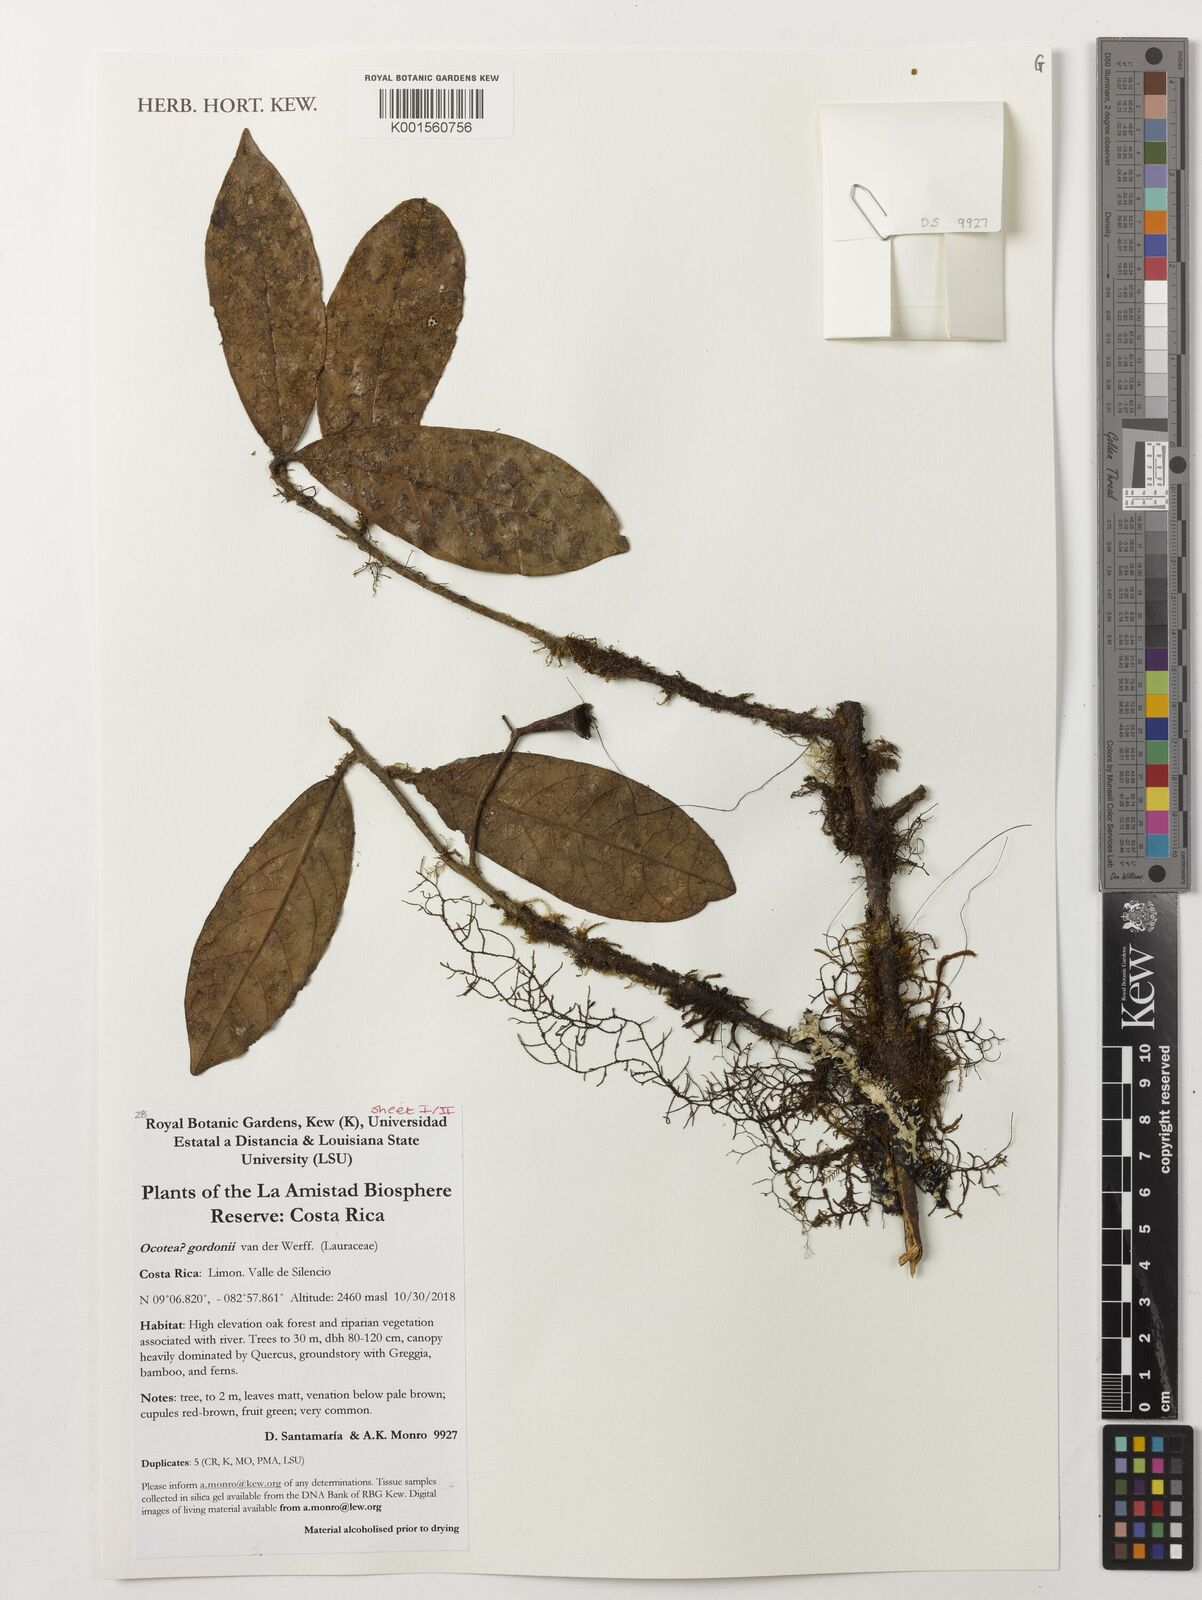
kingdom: Plantae
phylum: Tracheophyta
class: Magnoliopsida
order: Laurales
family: Lauraceae
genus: Ocotea
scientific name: Ocotea gordonii
